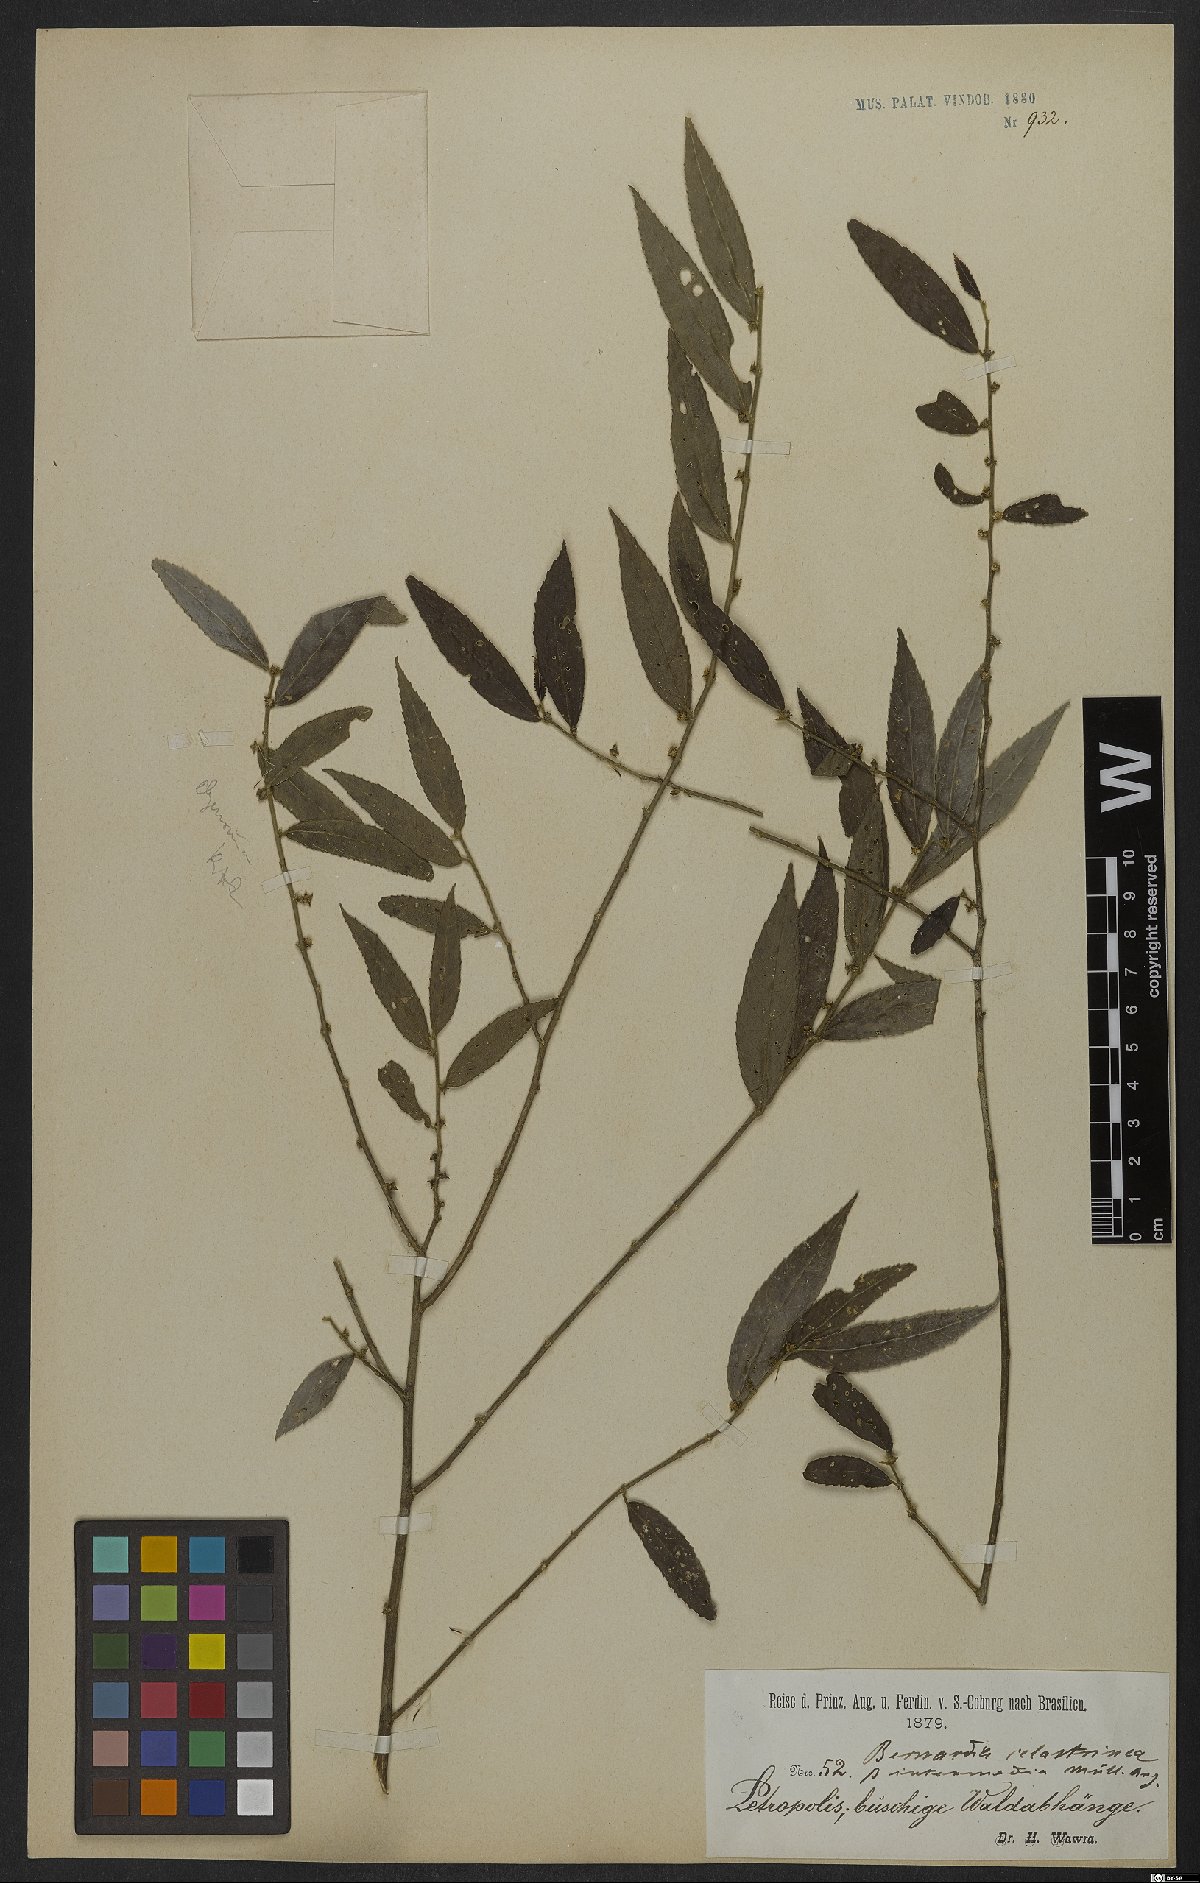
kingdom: Plantae
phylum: Tracheophyta
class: Magnoliopsida
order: Malpighiales
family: Euphorbiaceae
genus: Bernardia
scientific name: Bernardia celastrinea
